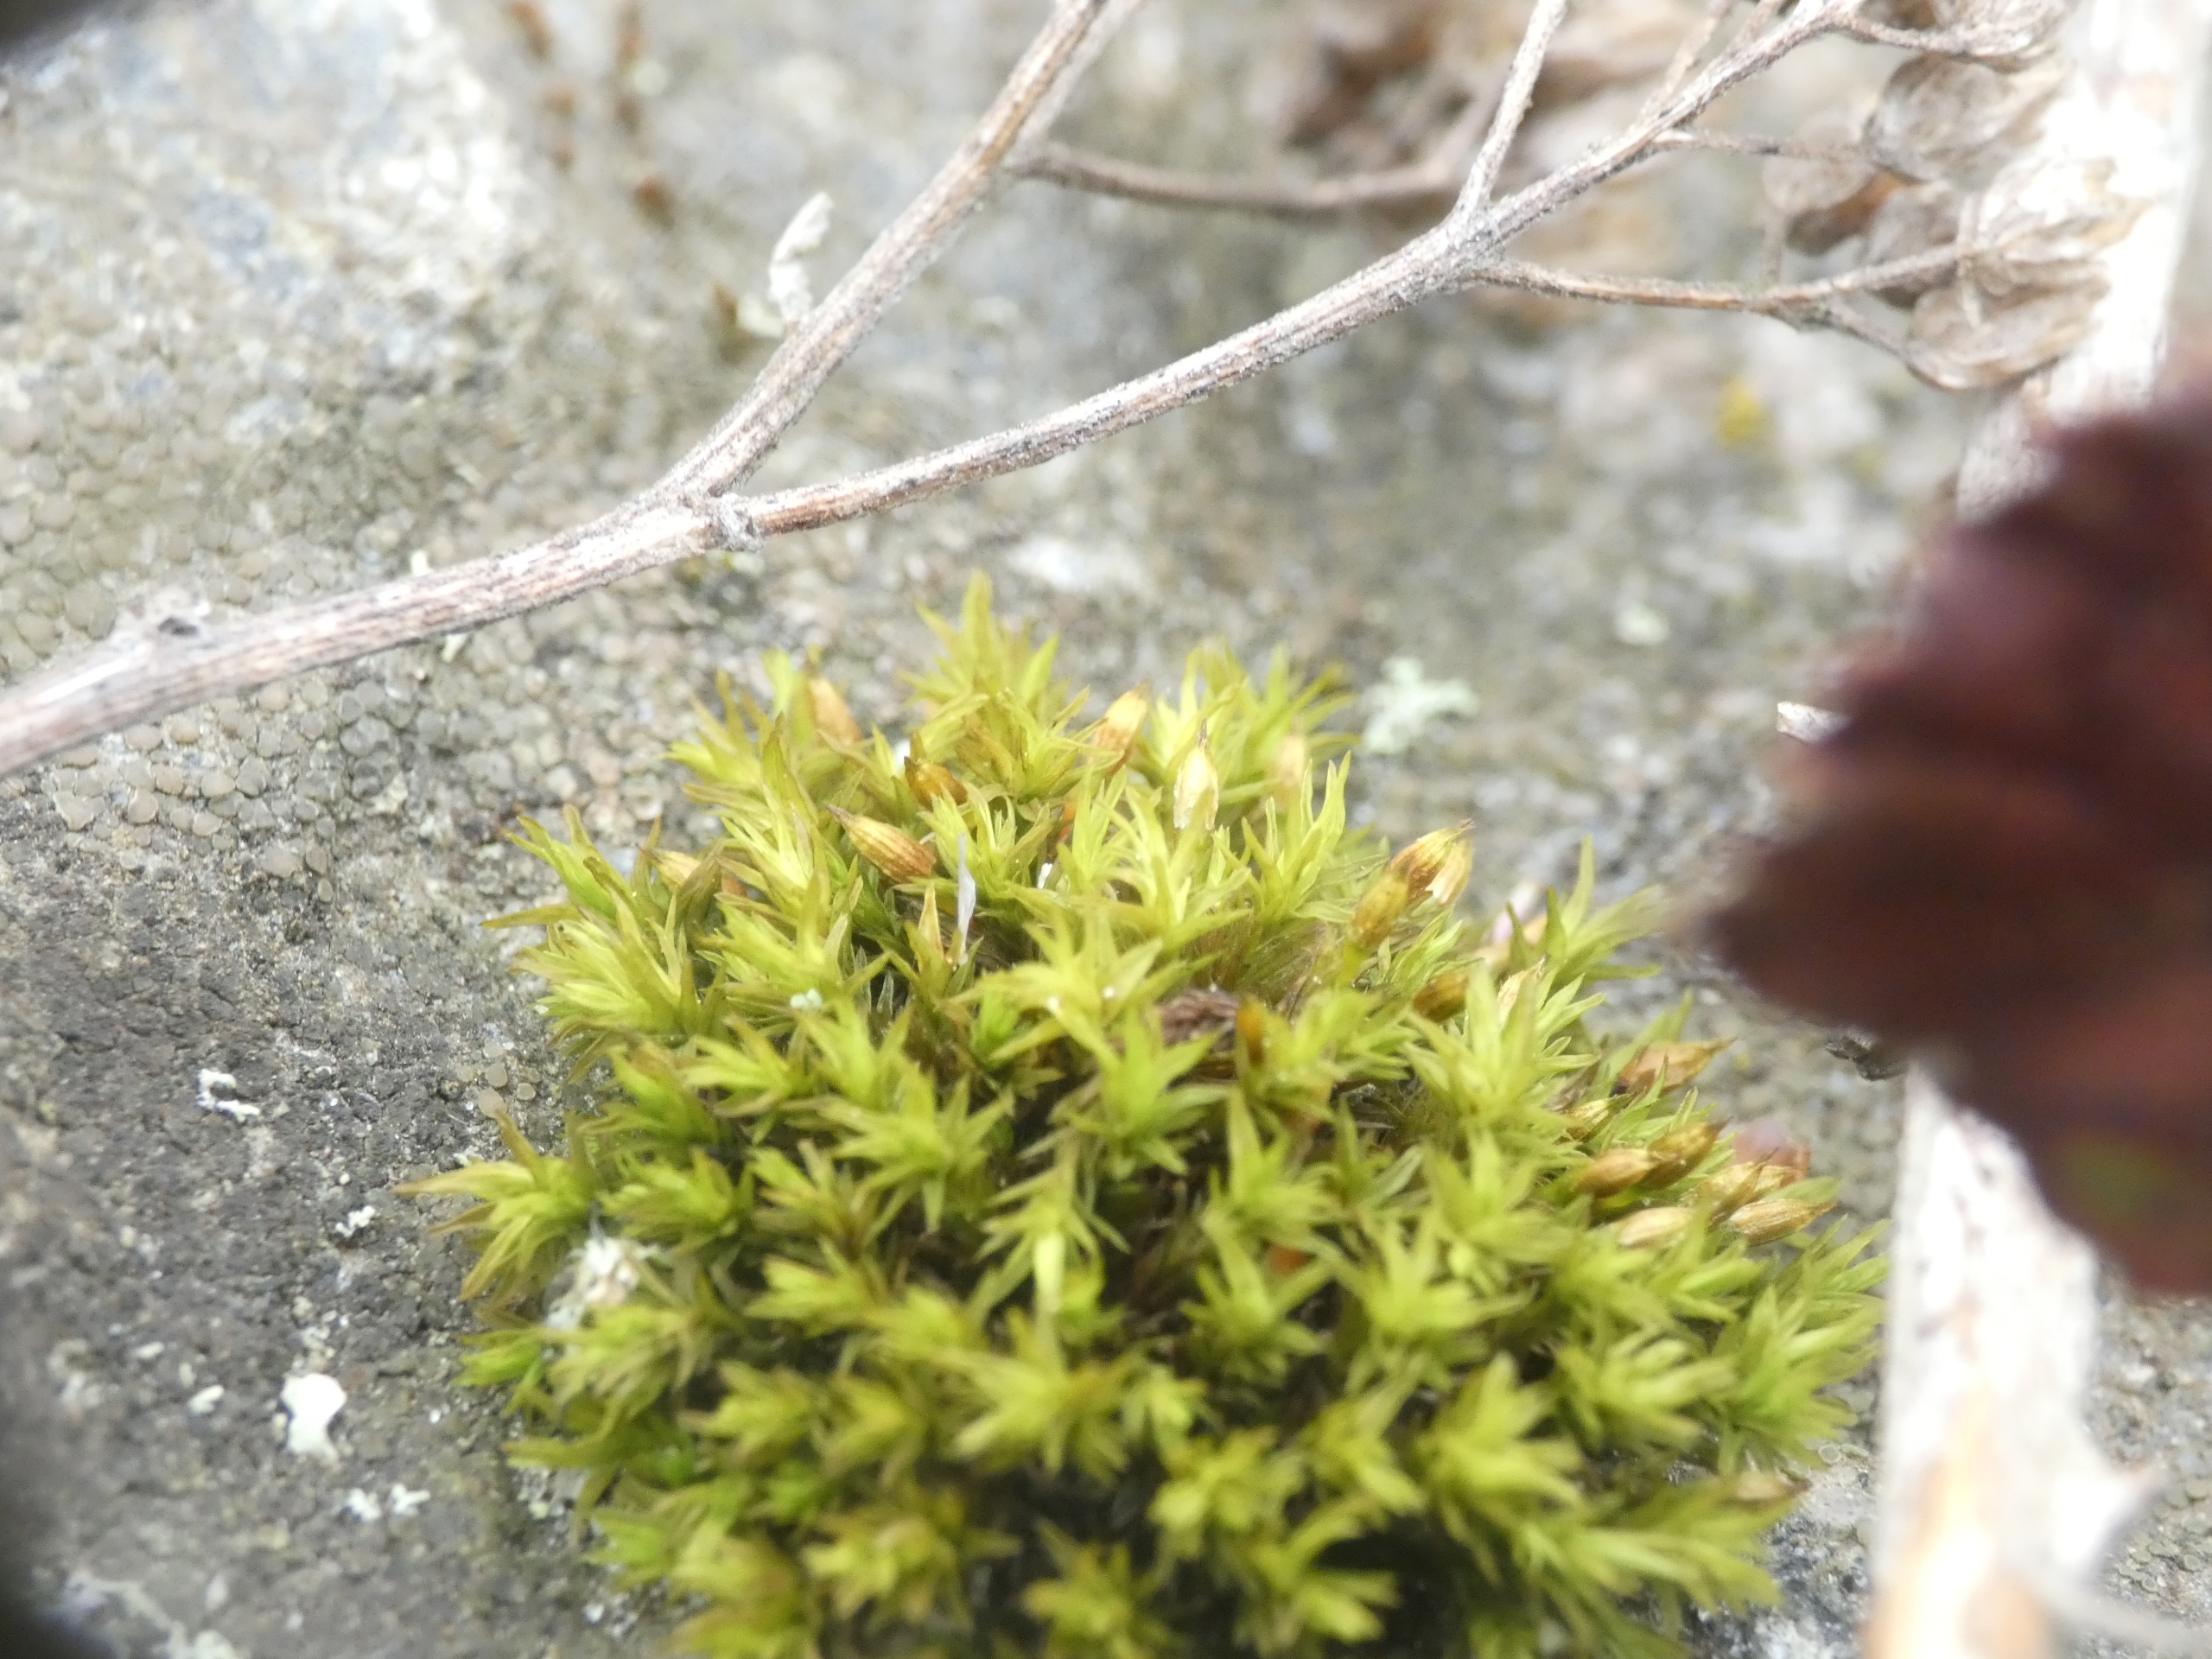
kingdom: Plantae
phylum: Bryophyta
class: Bryopsida
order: Orthotrichales
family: Orthotrichaceae
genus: Orthotrichum
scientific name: Orthotrichum
